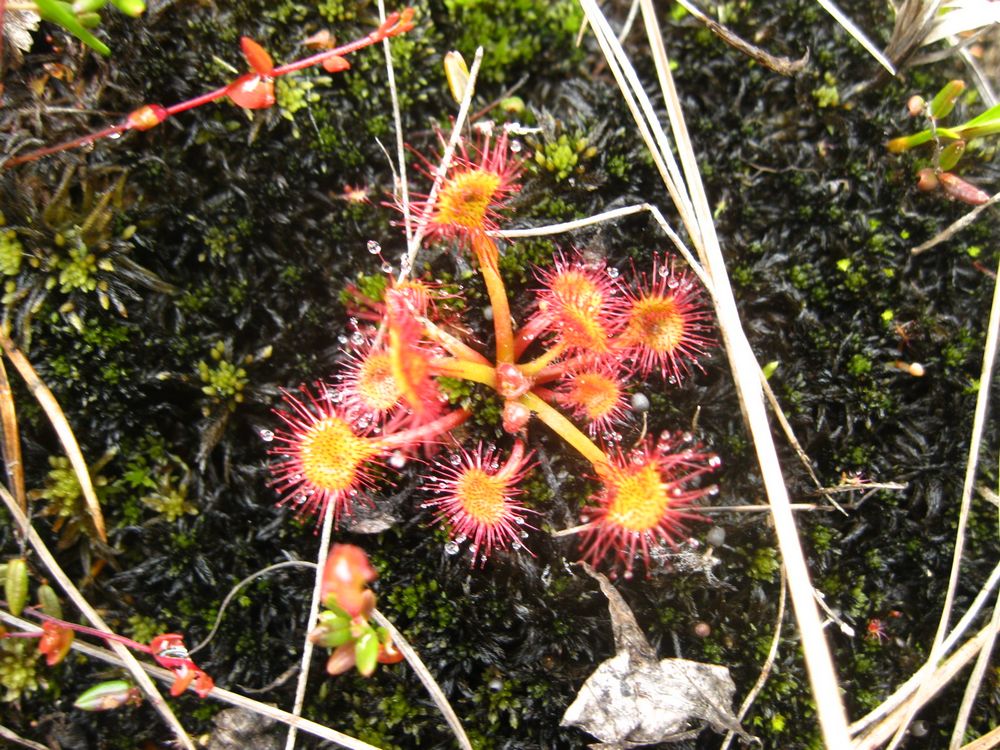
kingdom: Plantae
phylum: Tracheophyta
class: Magnoliopsida
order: Caryophyllales
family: Droseraceae
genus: Drosera
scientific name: Drosera rotundifolia
